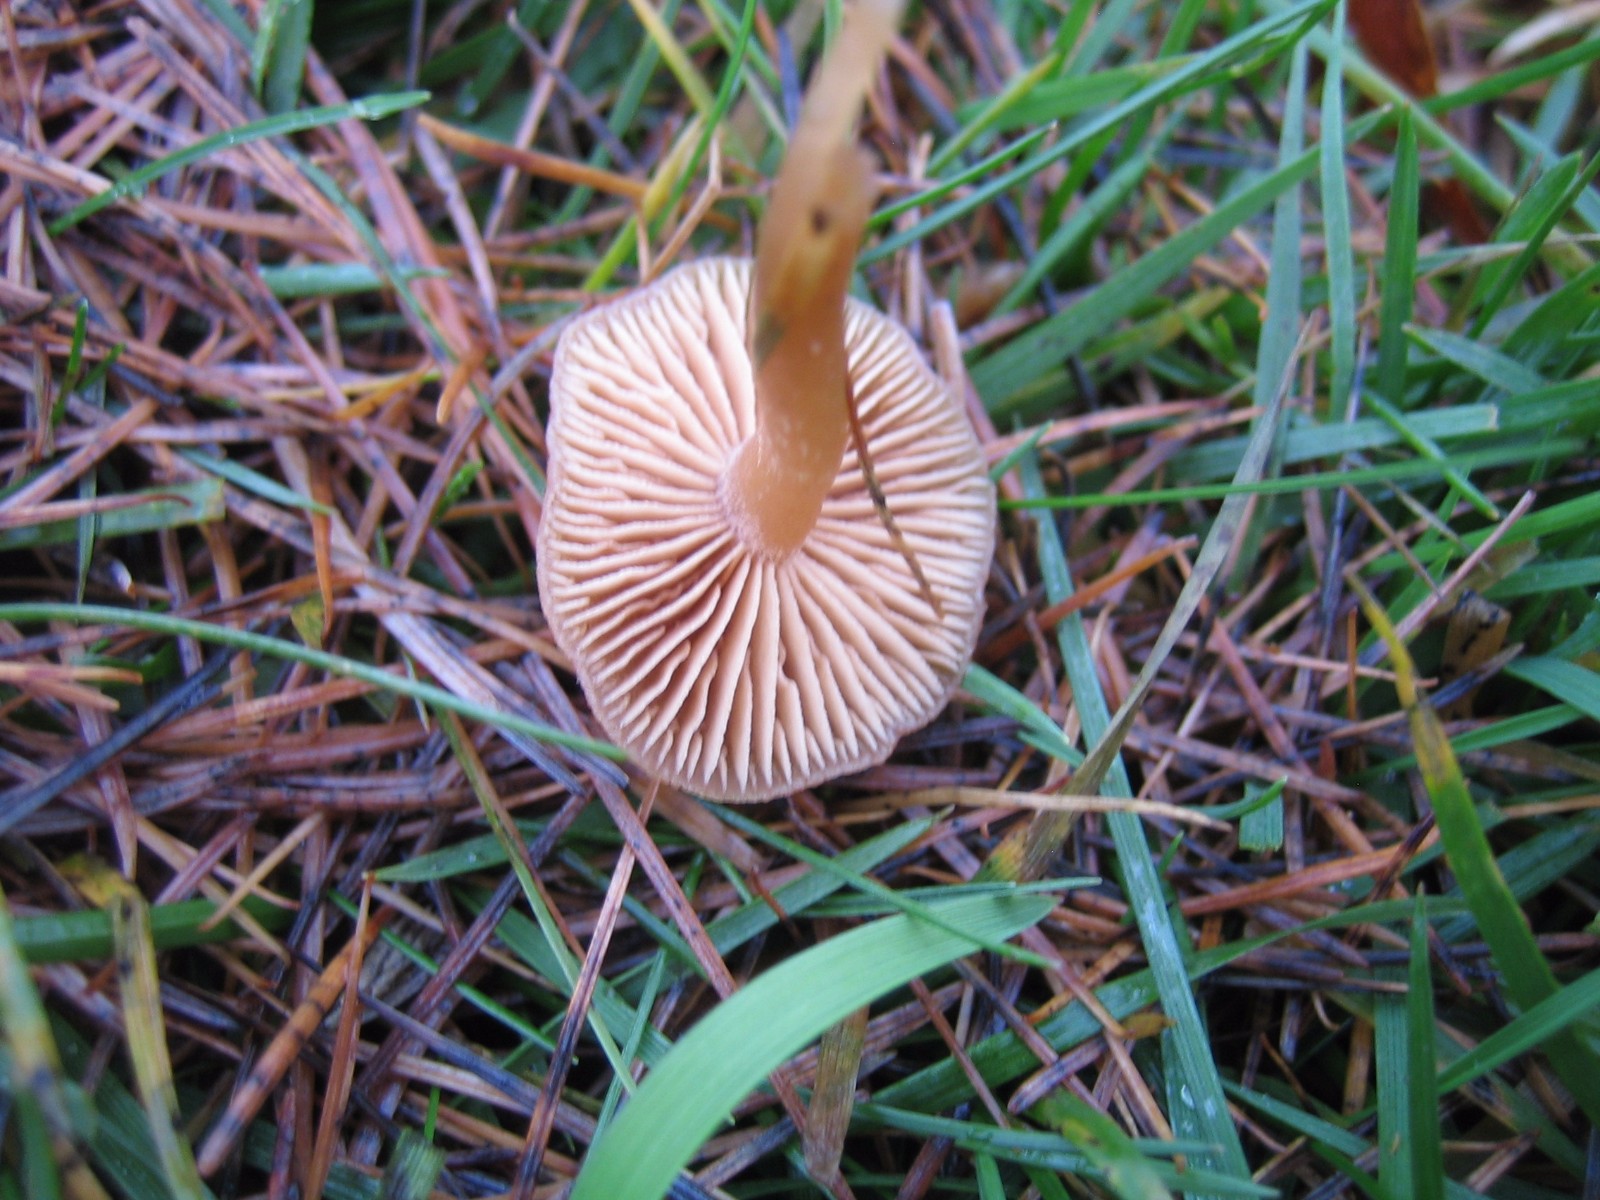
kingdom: Fungi
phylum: Basidiomycota
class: Agaricomycetes
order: Agaricales
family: Tubariaceae
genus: Tubaria
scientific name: Tubaria furfuracea
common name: kliddet fnughat
